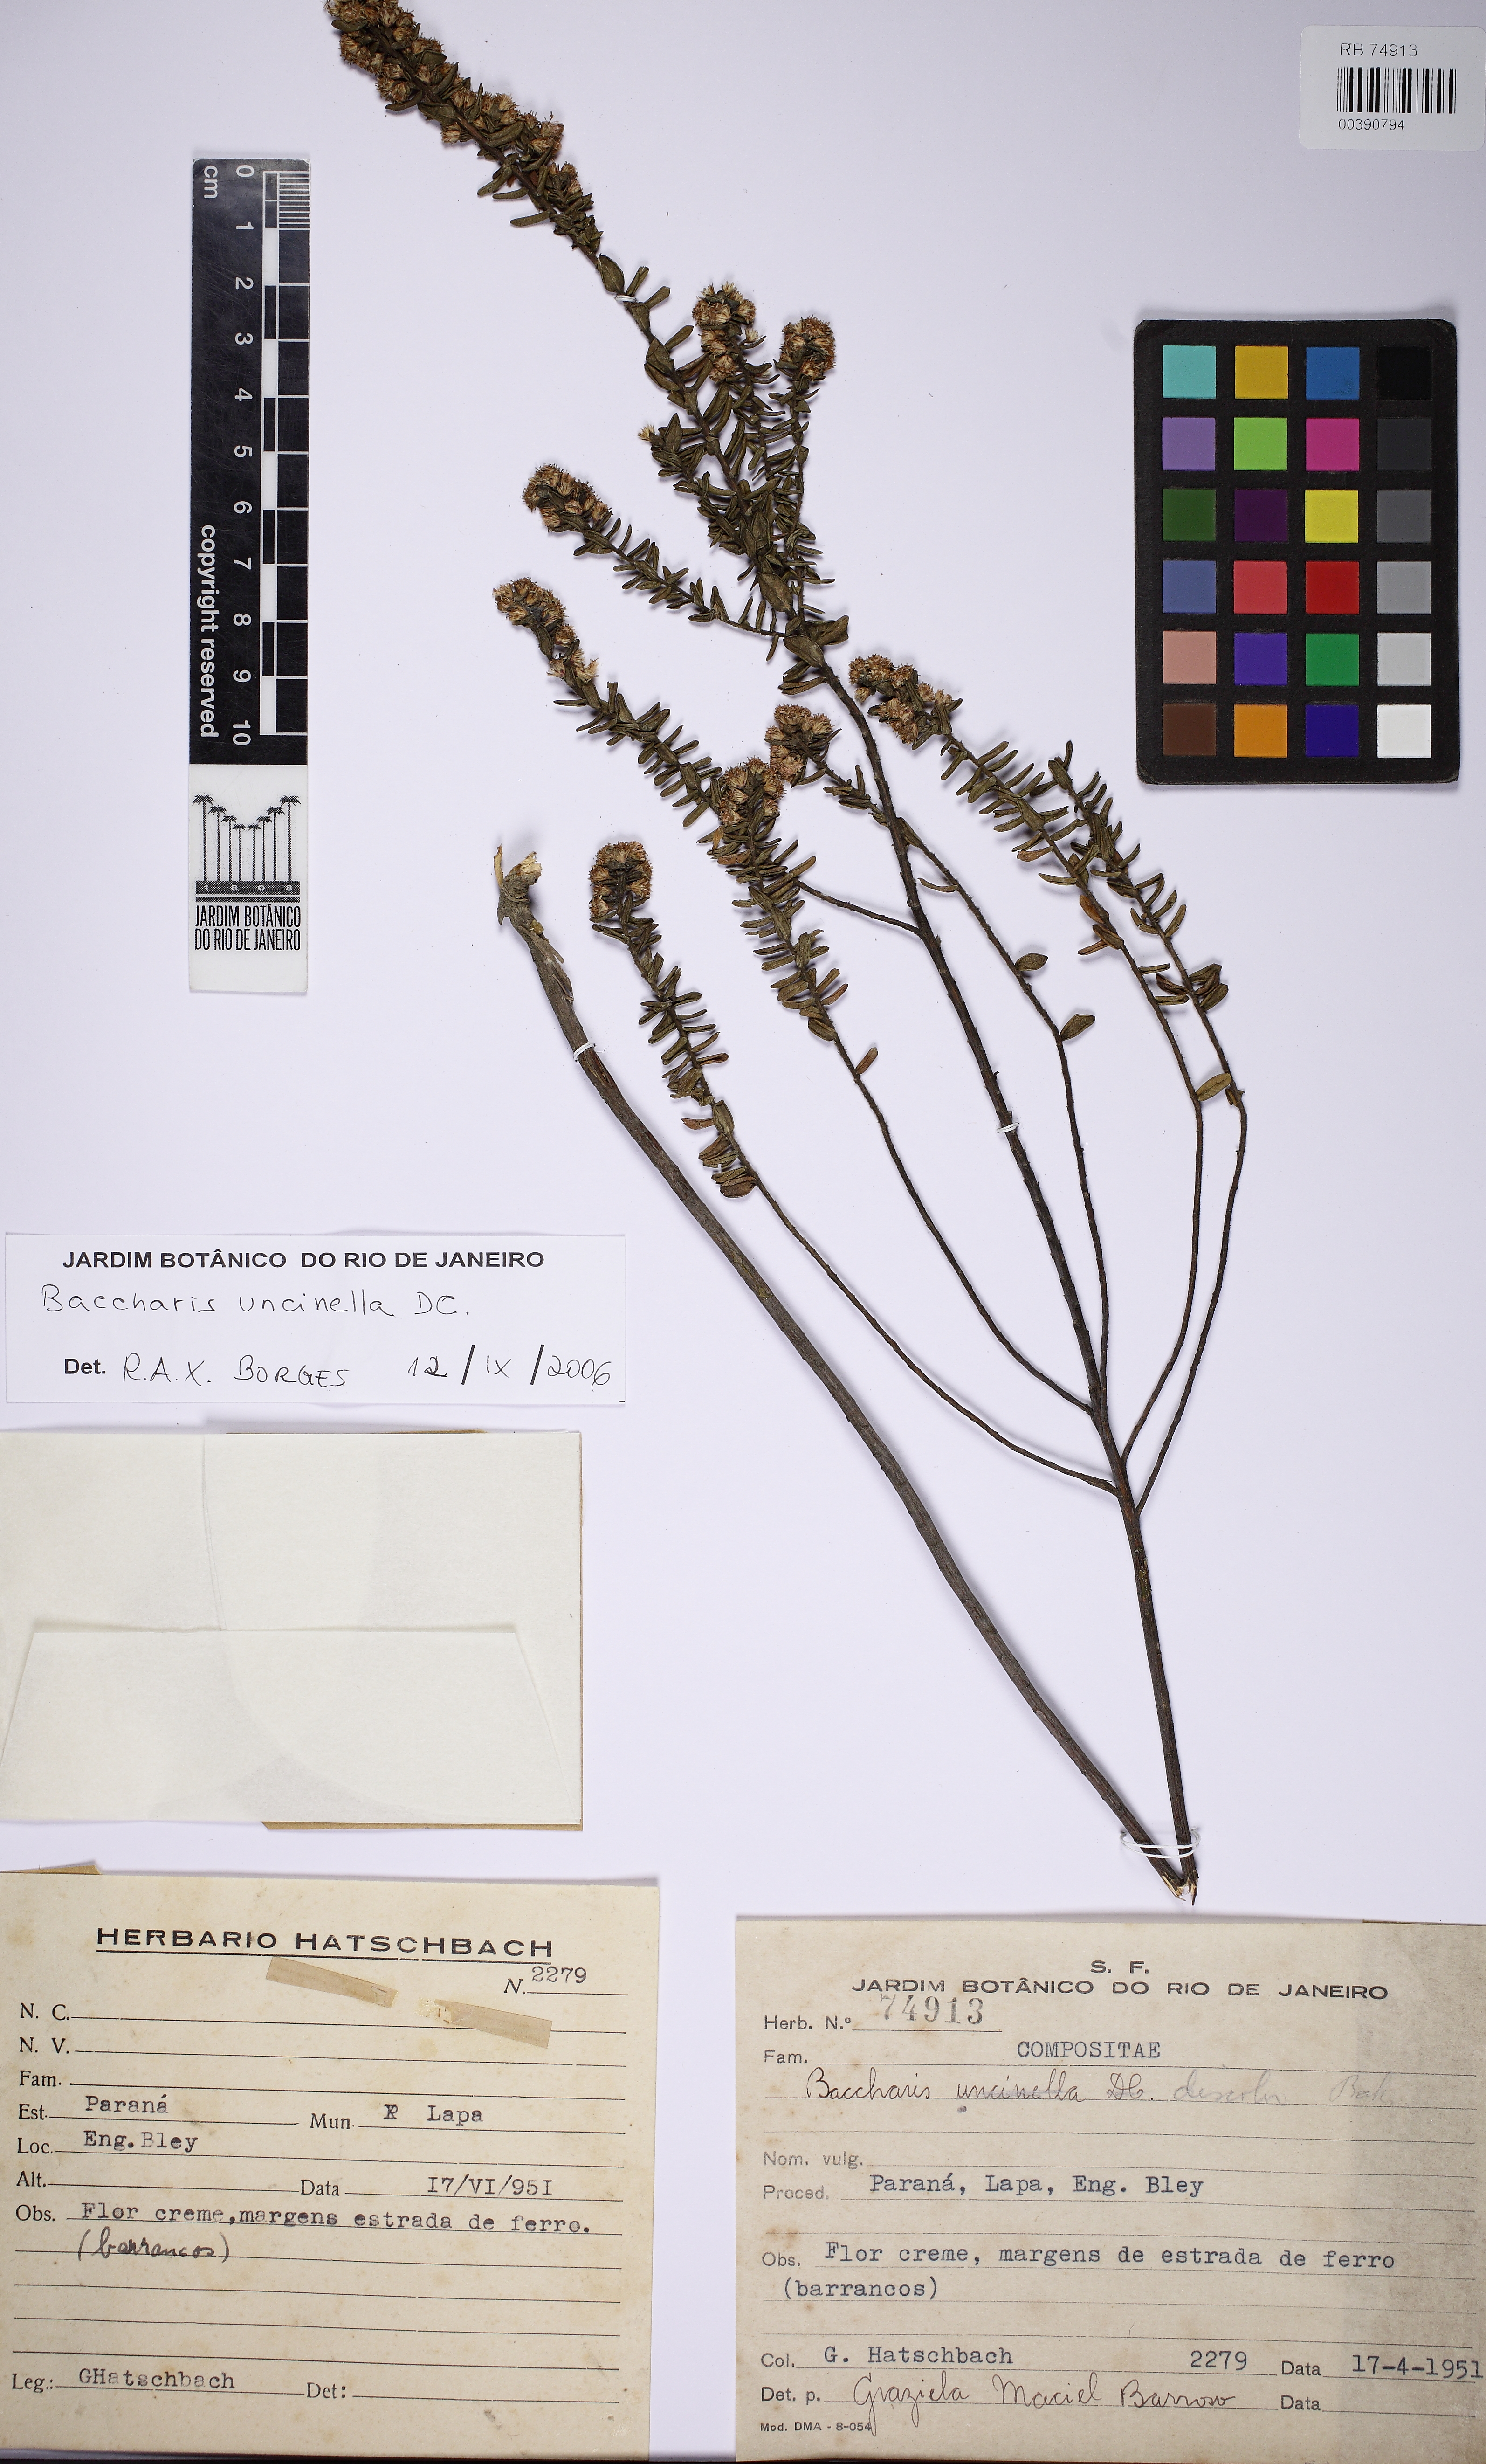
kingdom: Plantae
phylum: Tracheophyta
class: Magnoliopsida
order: Asterales
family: Asteraceae
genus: Baccharis
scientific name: Baccharis uncinella
